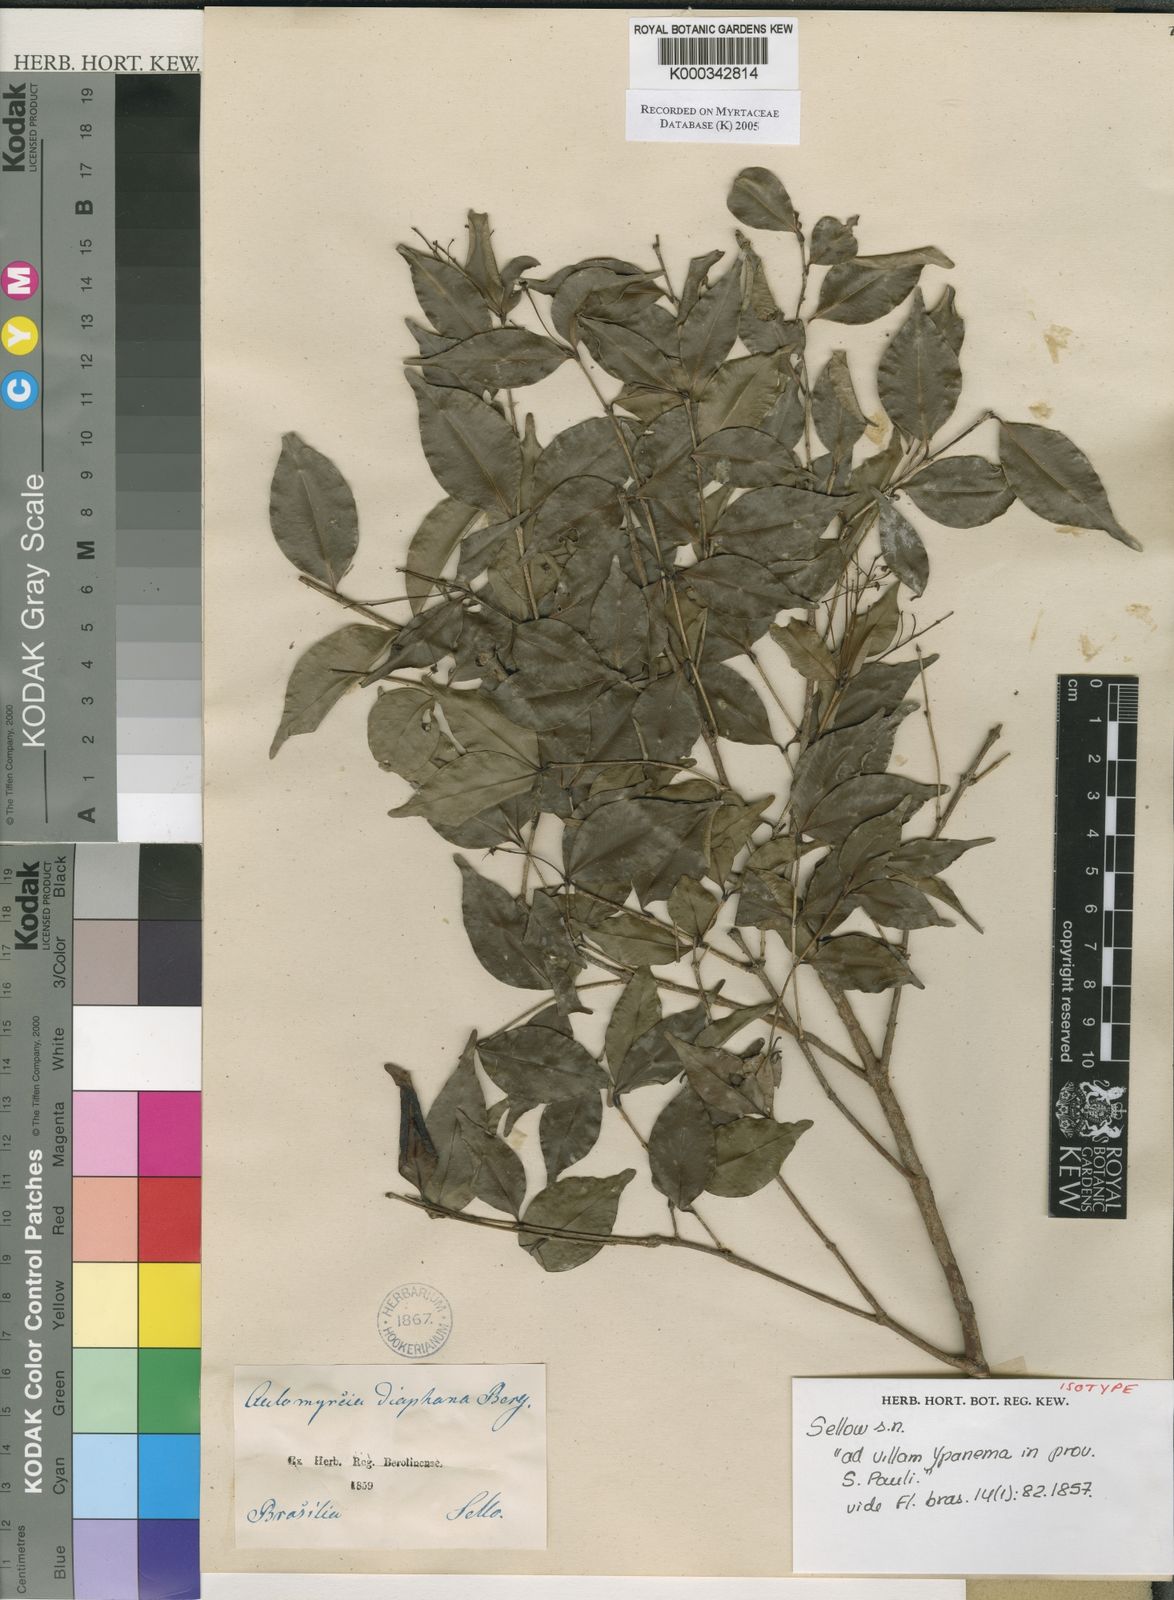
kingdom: Plantae
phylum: Tracheophyta
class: Magnoliopsida
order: Myrtales
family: Myrtaceae
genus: Myrcia
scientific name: Myrcia diaphana
